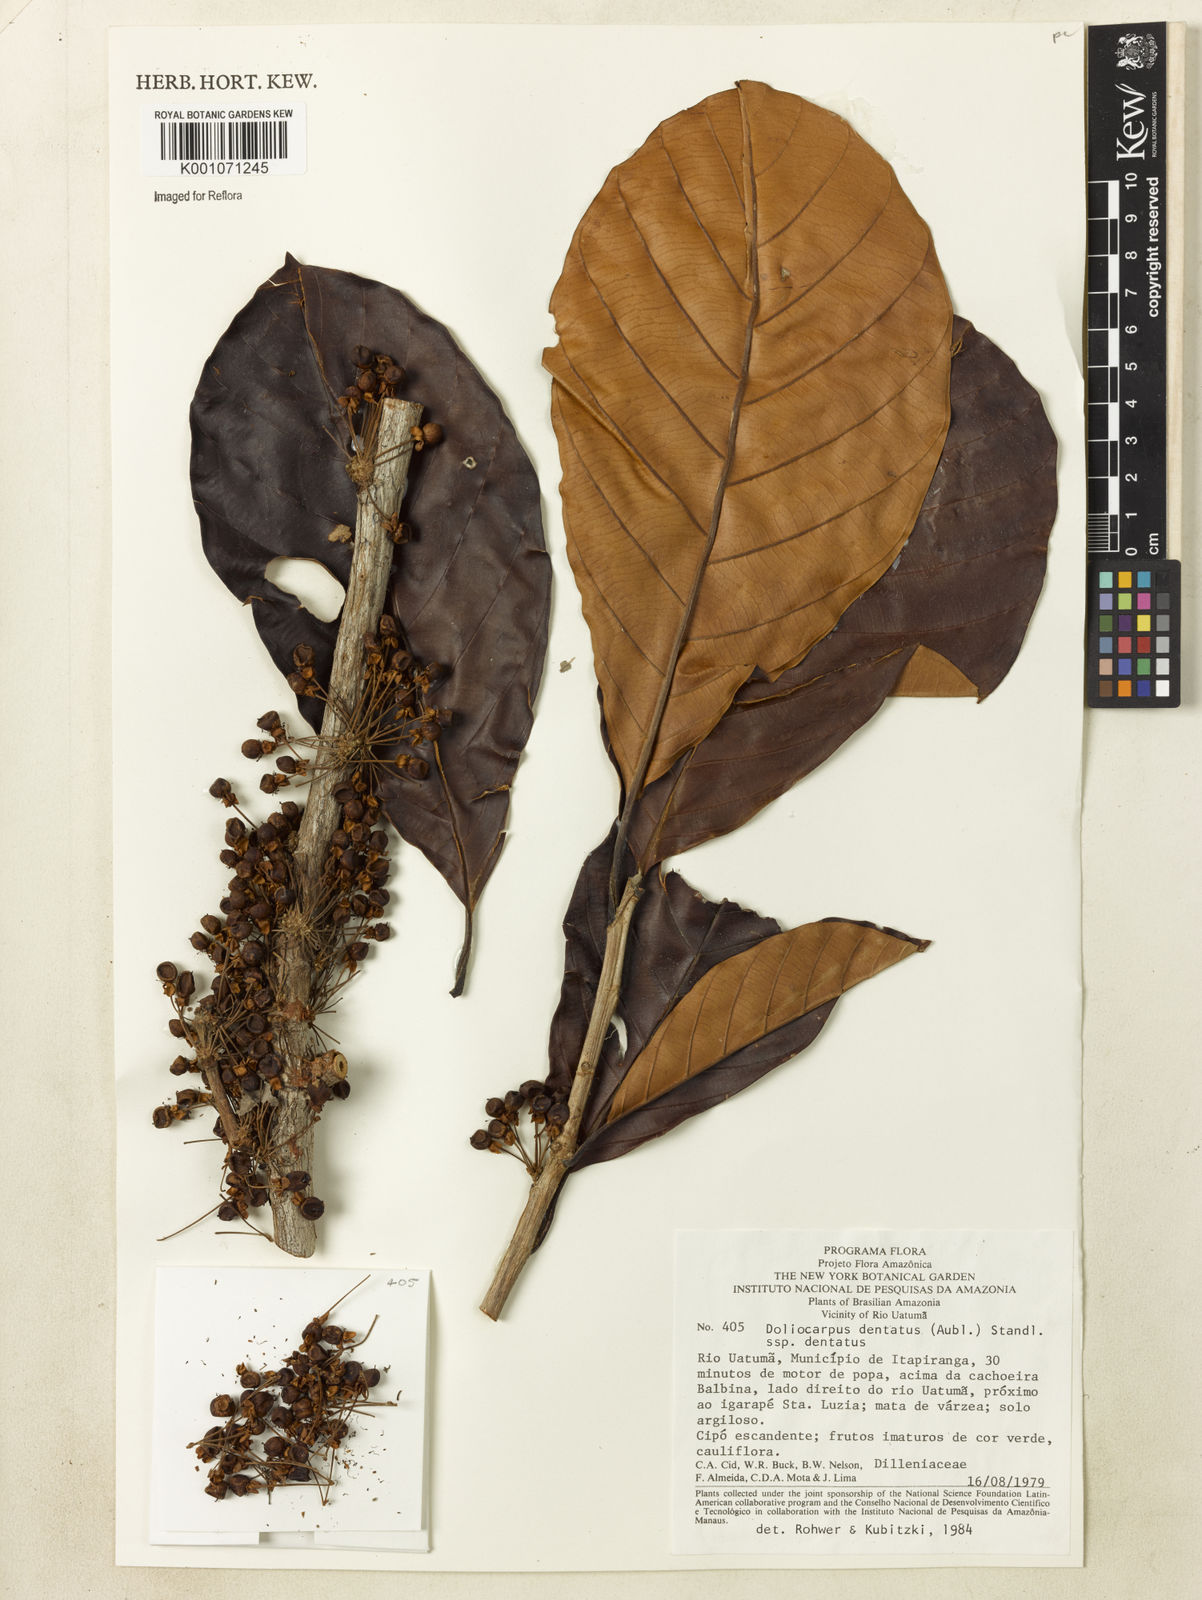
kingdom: Plantae
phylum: Tracheophyta
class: Magnoliopsida
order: Dilleniales
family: Dilleniaceae
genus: Doliocarpus
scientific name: Doliocarpus dentatus
